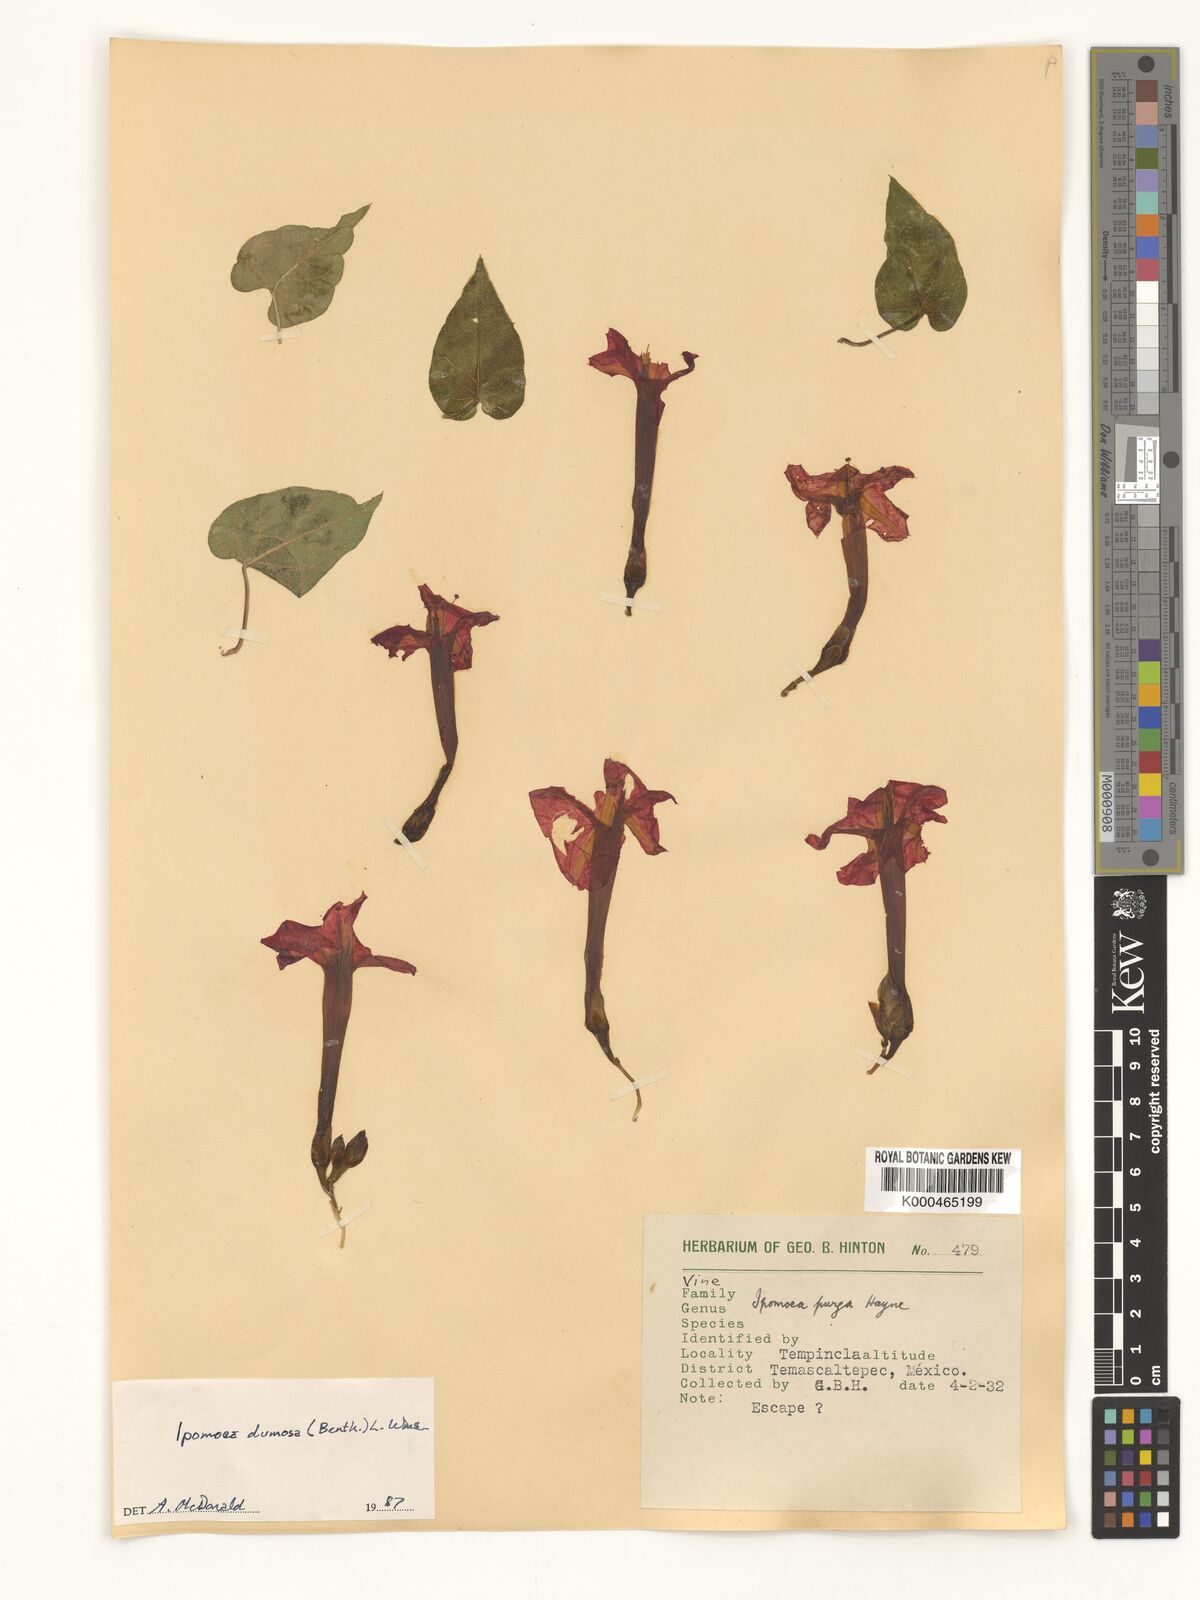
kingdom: Plantae
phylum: Tracheophyta
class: Magnoliopsida
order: Solanales
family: Convolvulaceae
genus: Ipomoea
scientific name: Ipomoea dumosa
